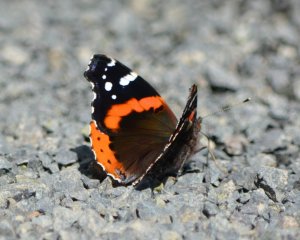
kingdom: Animalia
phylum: Arthropoda
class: Insecta
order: Lepidoptera
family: Nymphalidae
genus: Vanessa
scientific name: Vanessa atalanta
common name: Red Admiral
